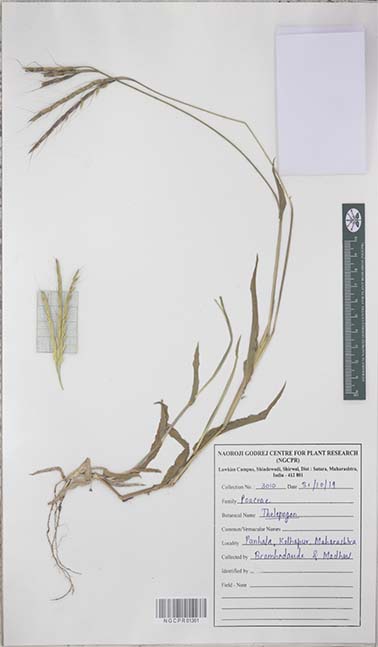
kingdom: Plantae
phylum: Tracheophyta
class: Liliopsida
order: Poales
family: Poaceae
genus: Thelepogon
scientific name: Thelepogon
